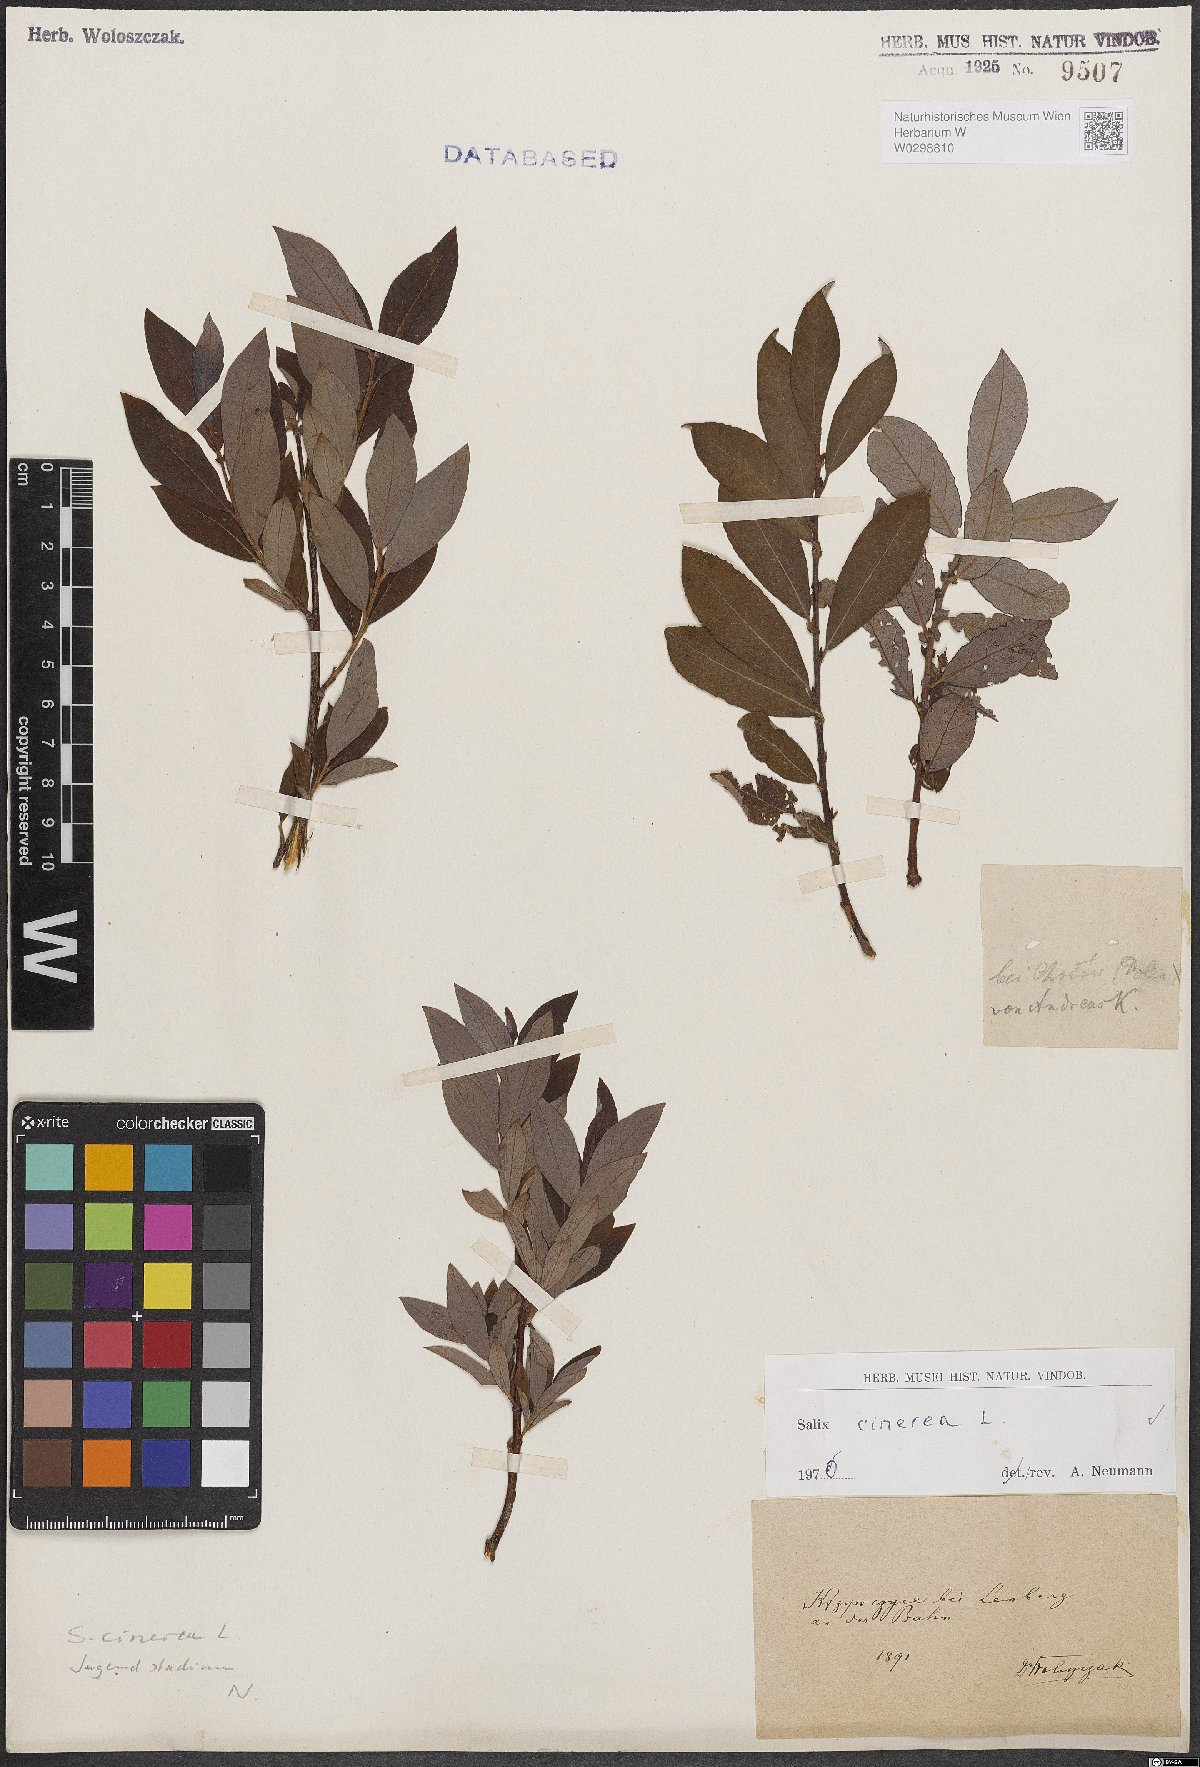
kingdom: Plantae
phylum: Tracheophyta
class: Magnoliopsida
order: Malpighiales
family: Salicaceae
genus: Salix
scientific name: Salix cinerea
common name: Common sallow
